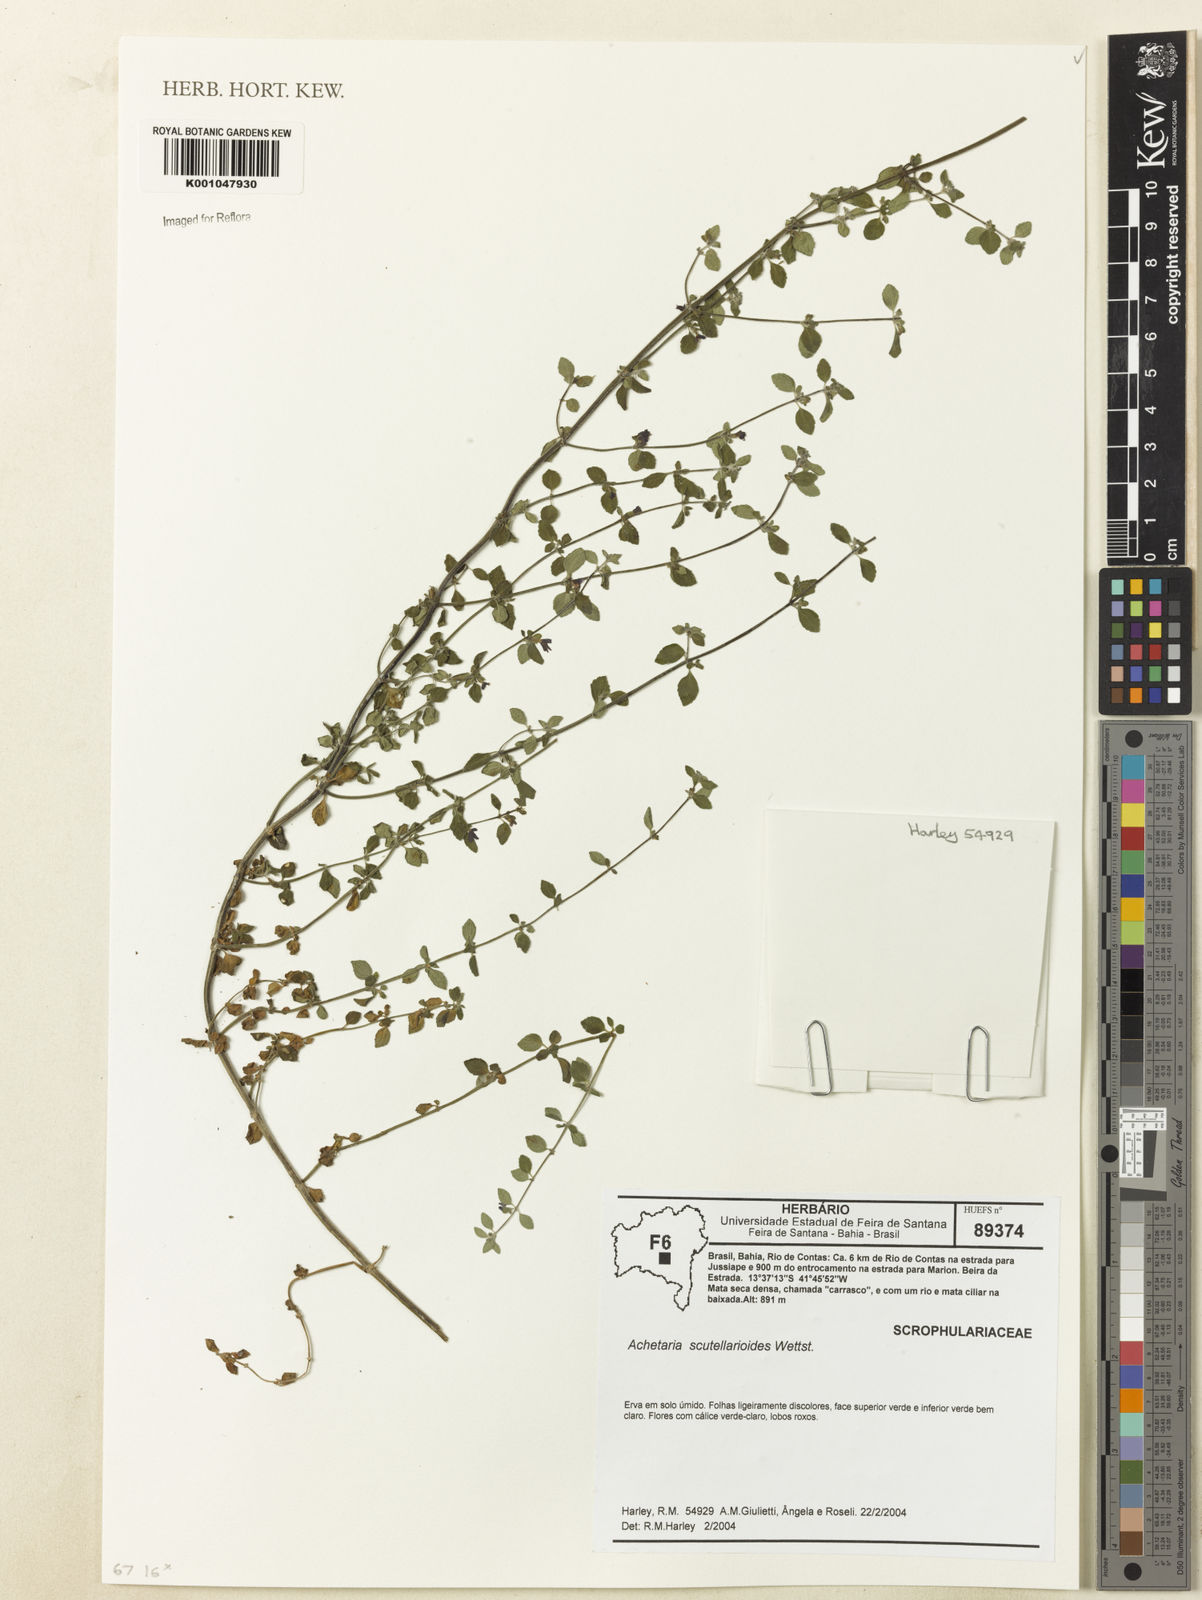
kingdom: Plantae
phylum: Tracheophyta
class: Magnoliopsida
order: Lamiales
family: Plantaginaceae
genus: Matourea
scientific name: Matourea scutellarioides
